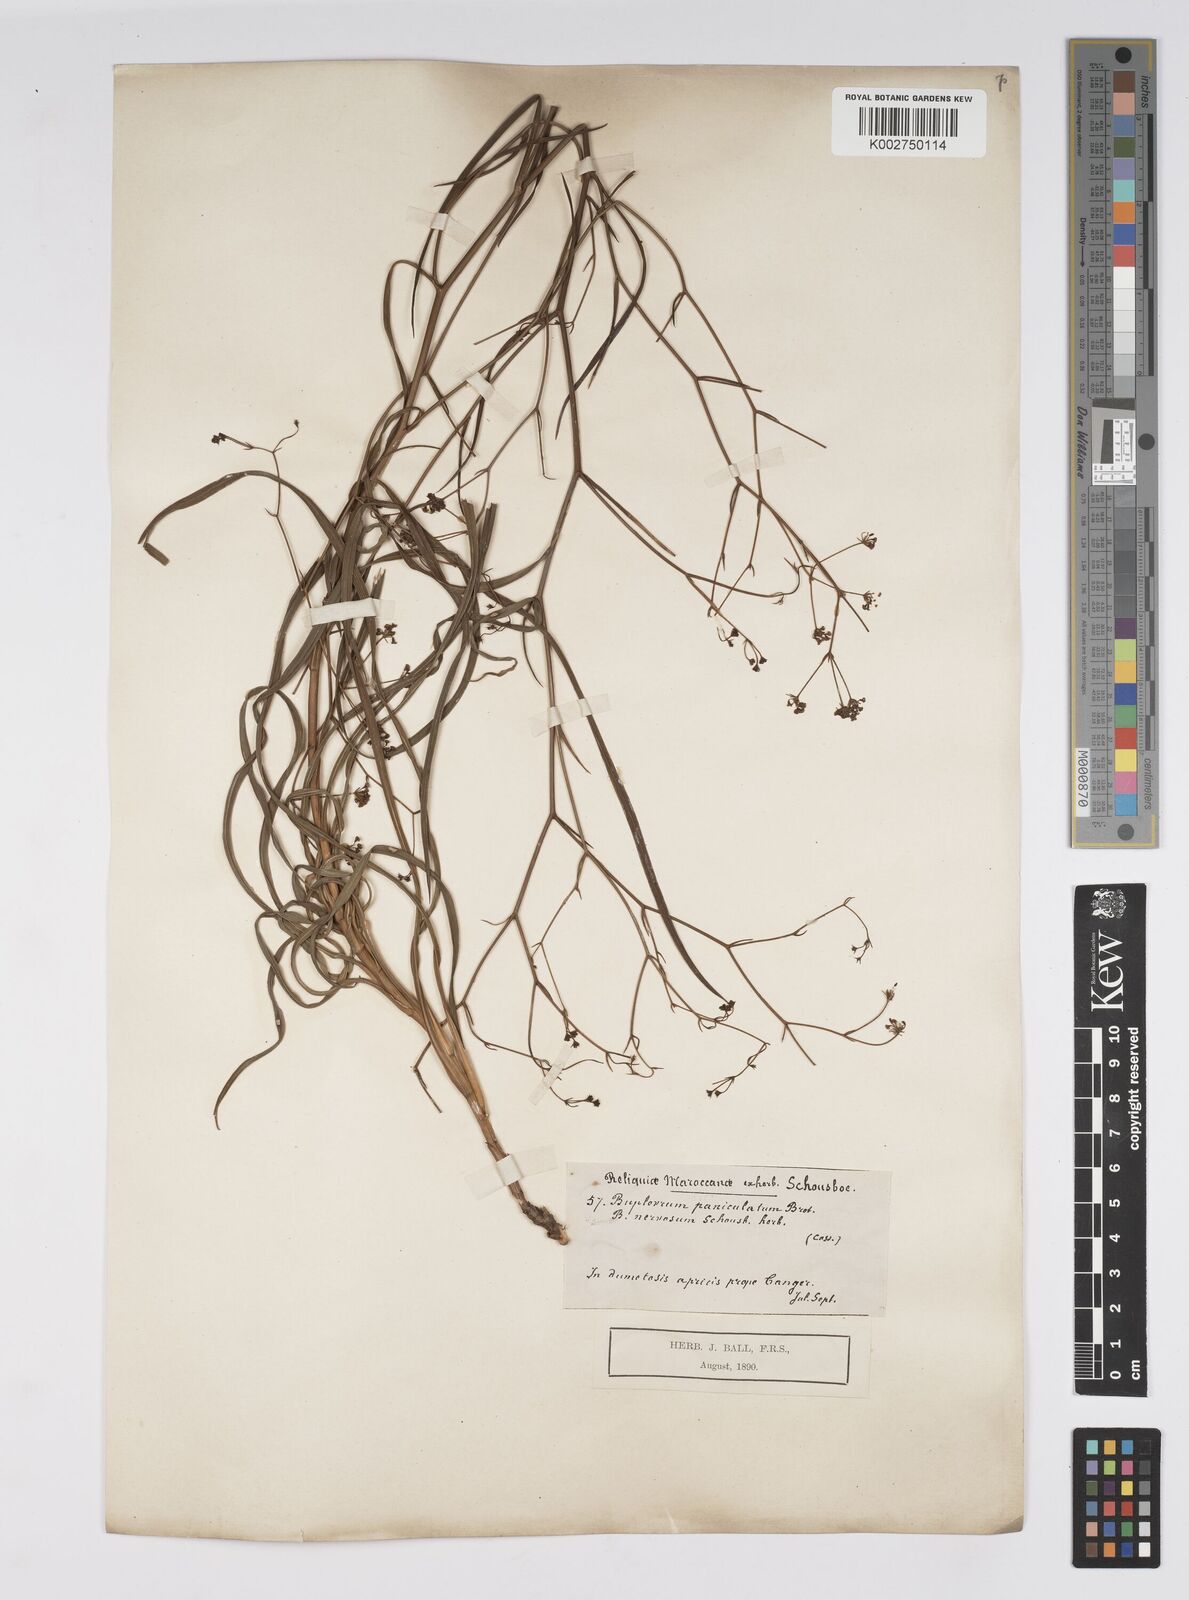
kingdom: Plantae
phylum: Tracheophyta
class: Magnoliopsida
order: Apiales
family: Apiaceae
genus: Bupleurum
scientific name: Bupleurum rigidum
